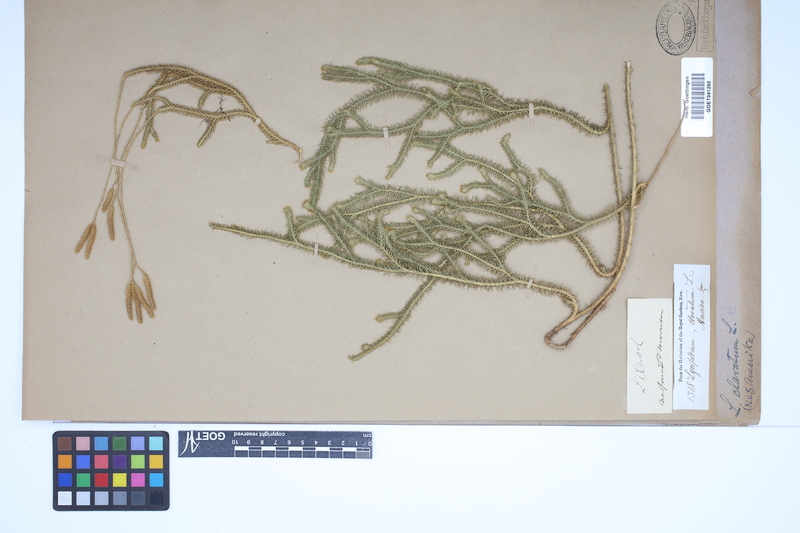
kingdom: Plantae
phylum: Tracheophyta
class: Lycopodiopsida
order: Lycopodiales
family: Lycopodiaceae
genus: Lycopodium
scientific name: Lycopodium clavatum
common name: Stag's-horn clubmoss
